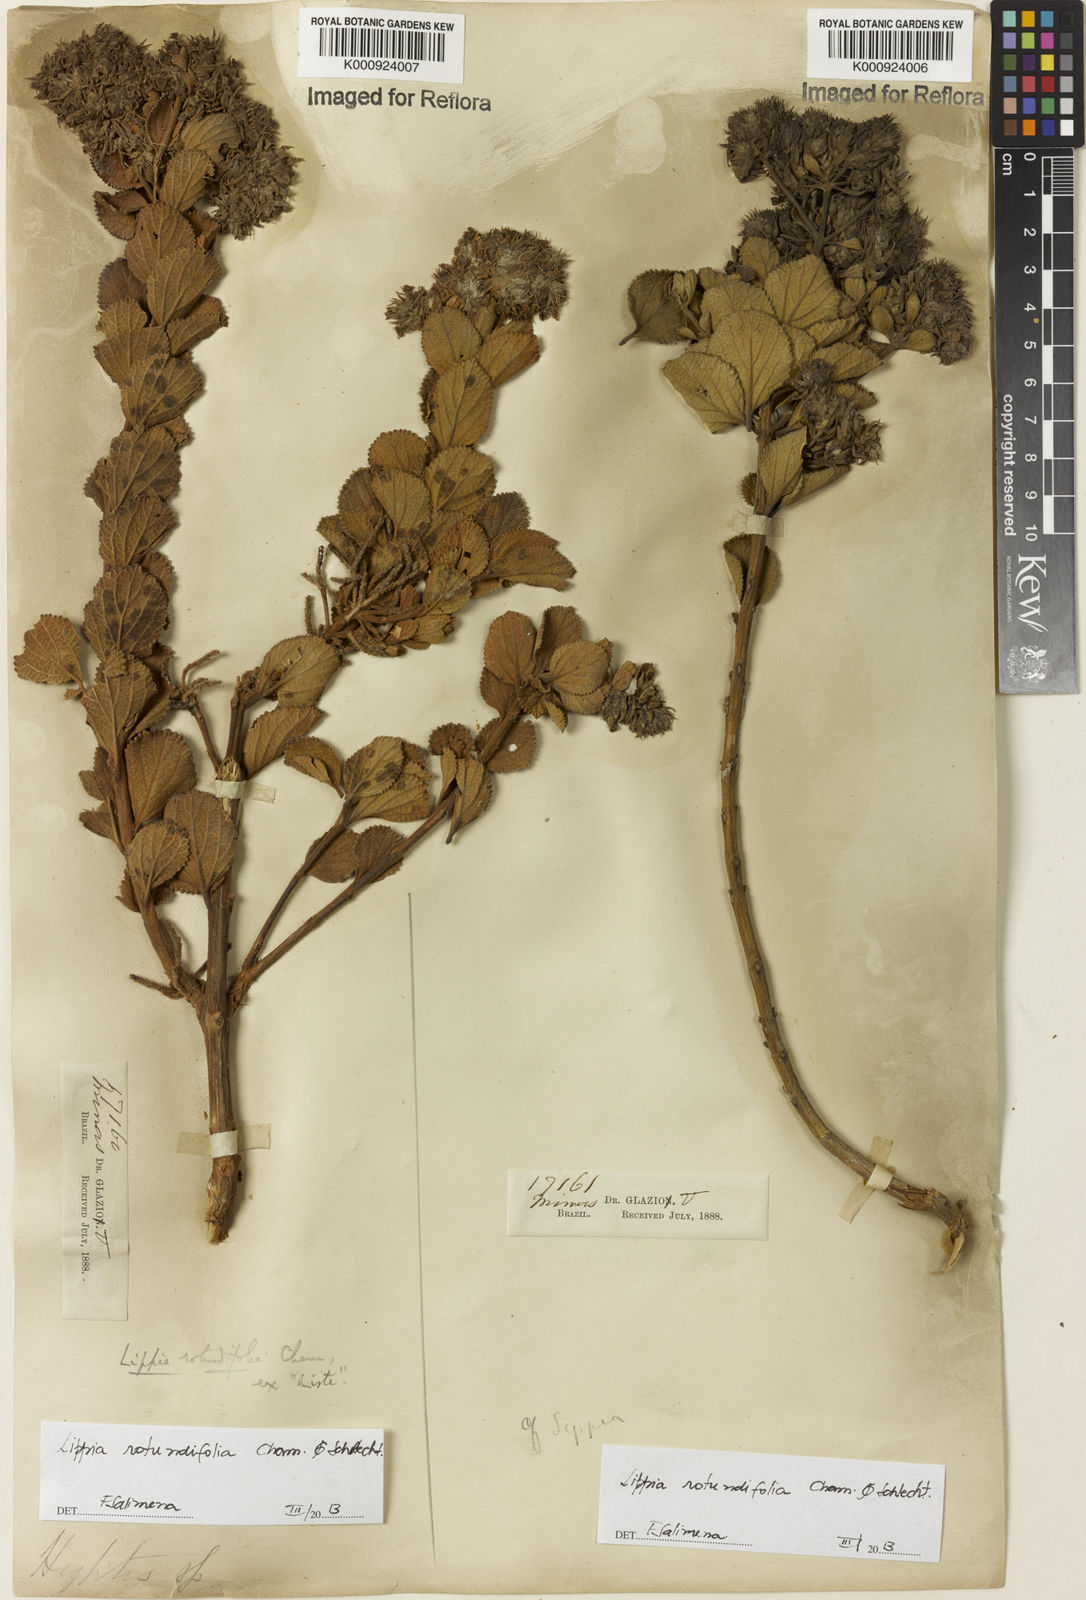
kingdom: Plantae
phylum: Tracheophyta
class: Magnoliopsida
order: Lamiales
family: Verbenaceae
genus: Lippia
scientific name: Lippia rotundifolia
